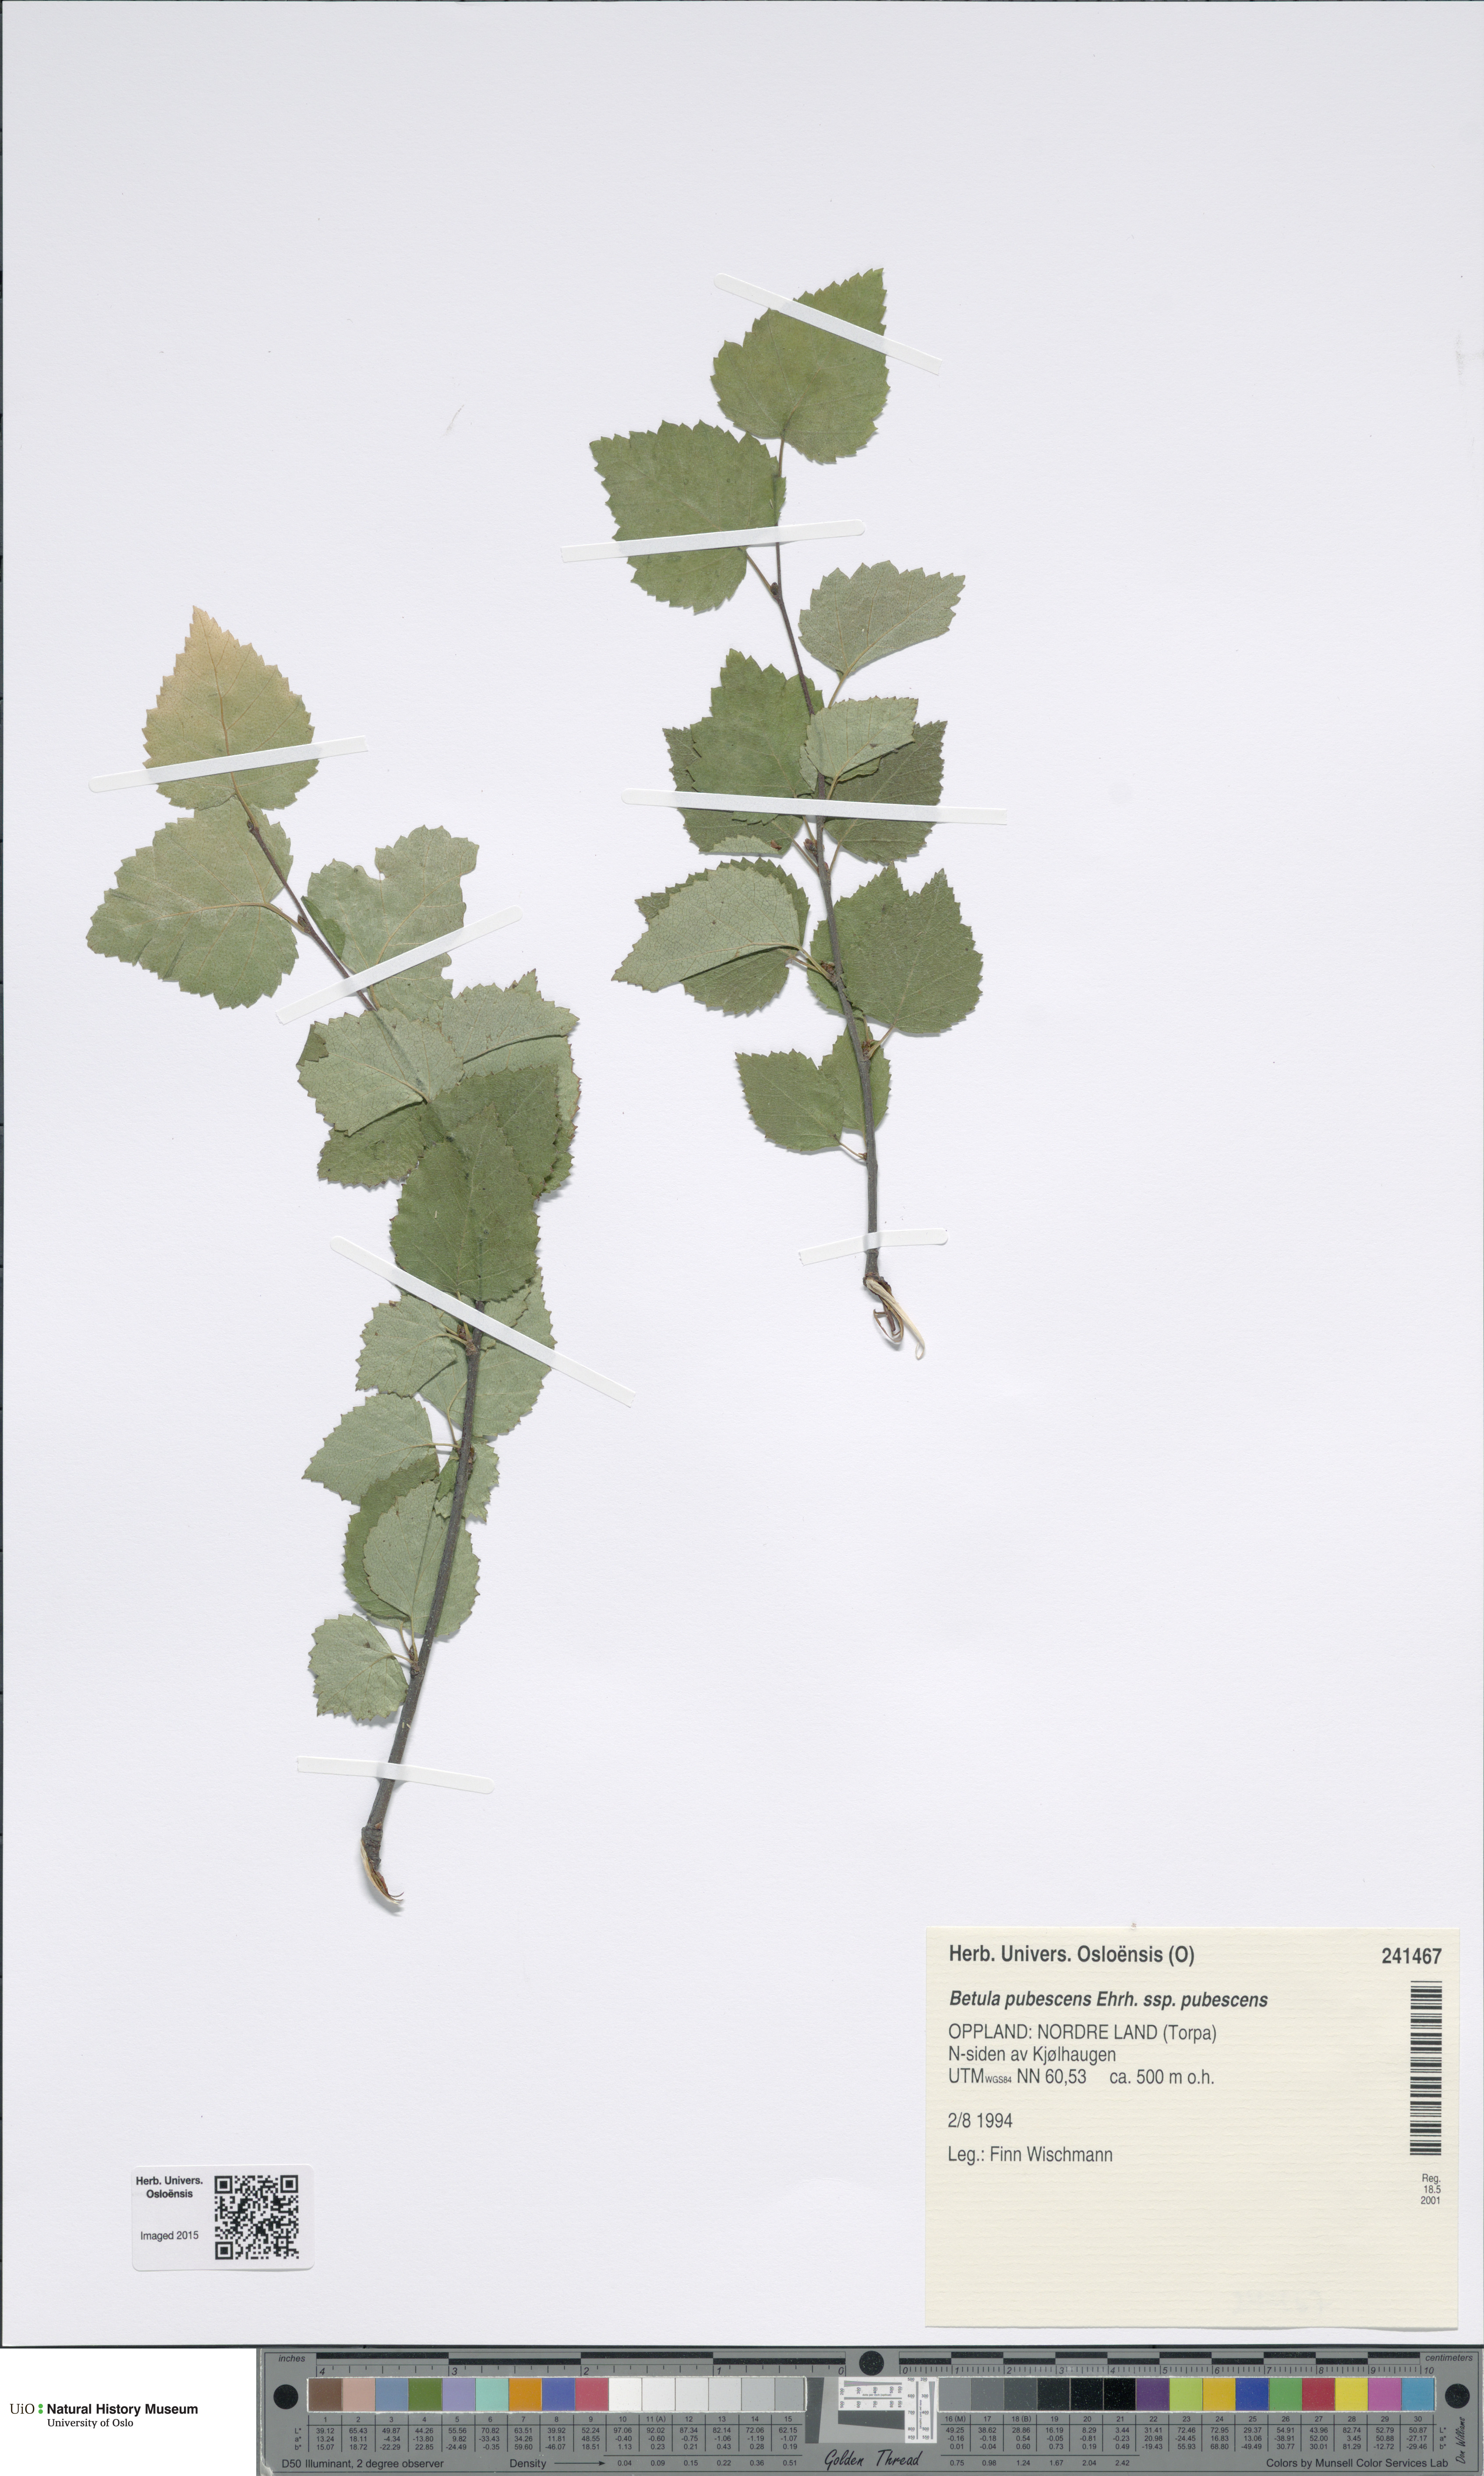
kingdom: Plantae
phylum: Tracheophyta
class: Magnoliopsida
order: Fagales
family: Betulaceae
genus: Betula
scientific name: Betula pubescens
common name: Downy birch
